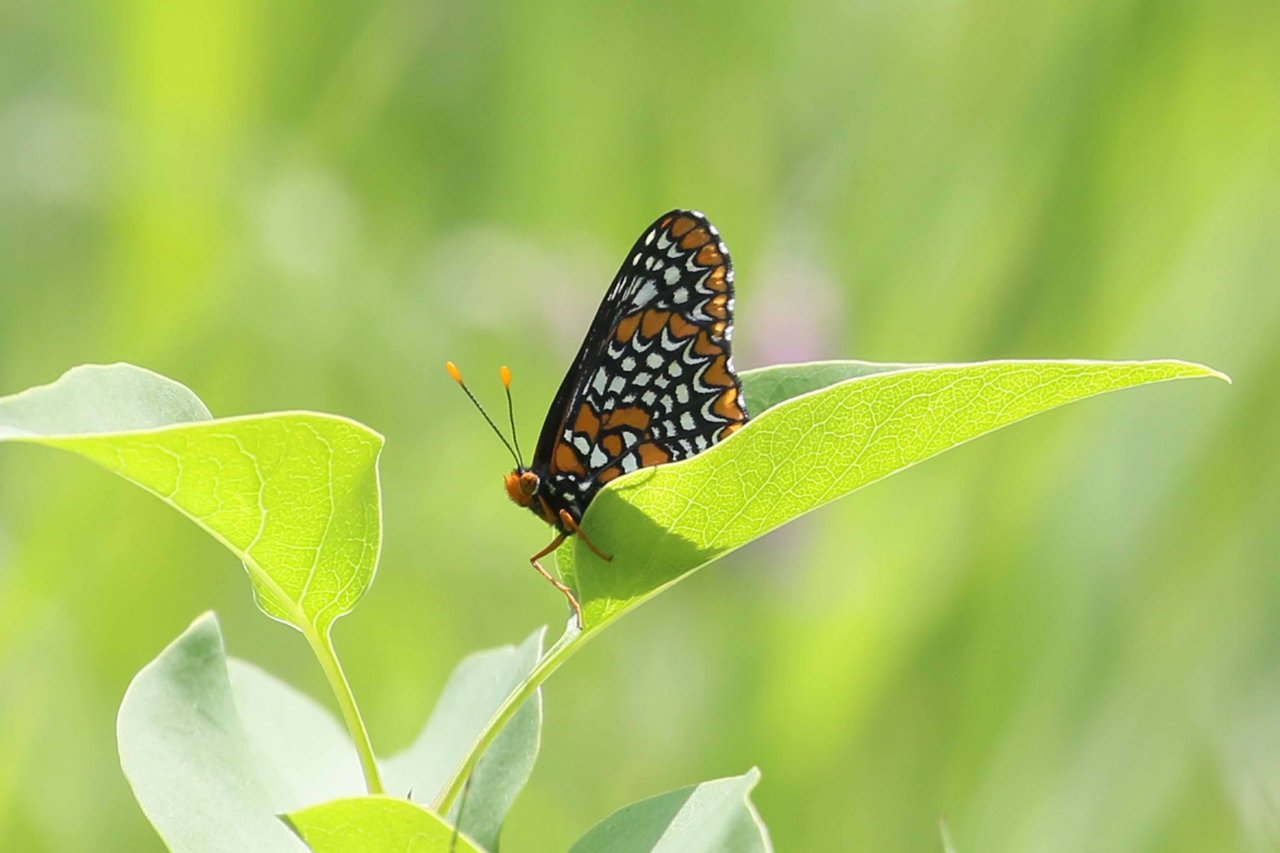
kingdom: Animalia
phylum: Arthropoda
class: Insecta
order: Lepidoptera
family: Nymphalidae
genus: Euphydryas
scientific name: Euphydryas phaeton
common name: Baltimore Checkerspot
